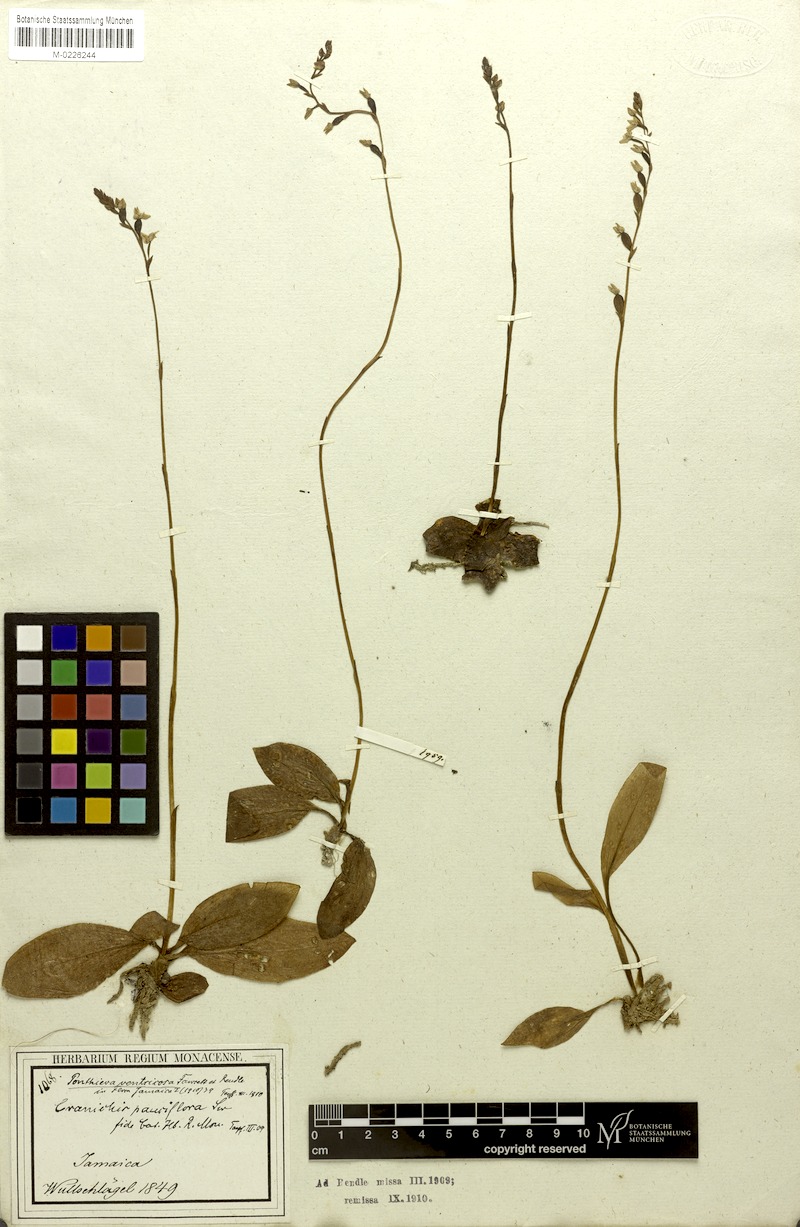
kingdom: Plantae
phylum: Tracheophyta
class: Liliopsida
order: Asparagales
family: Orchidaceae
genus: Ponthieva
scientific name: Ponthieva ventricosa
